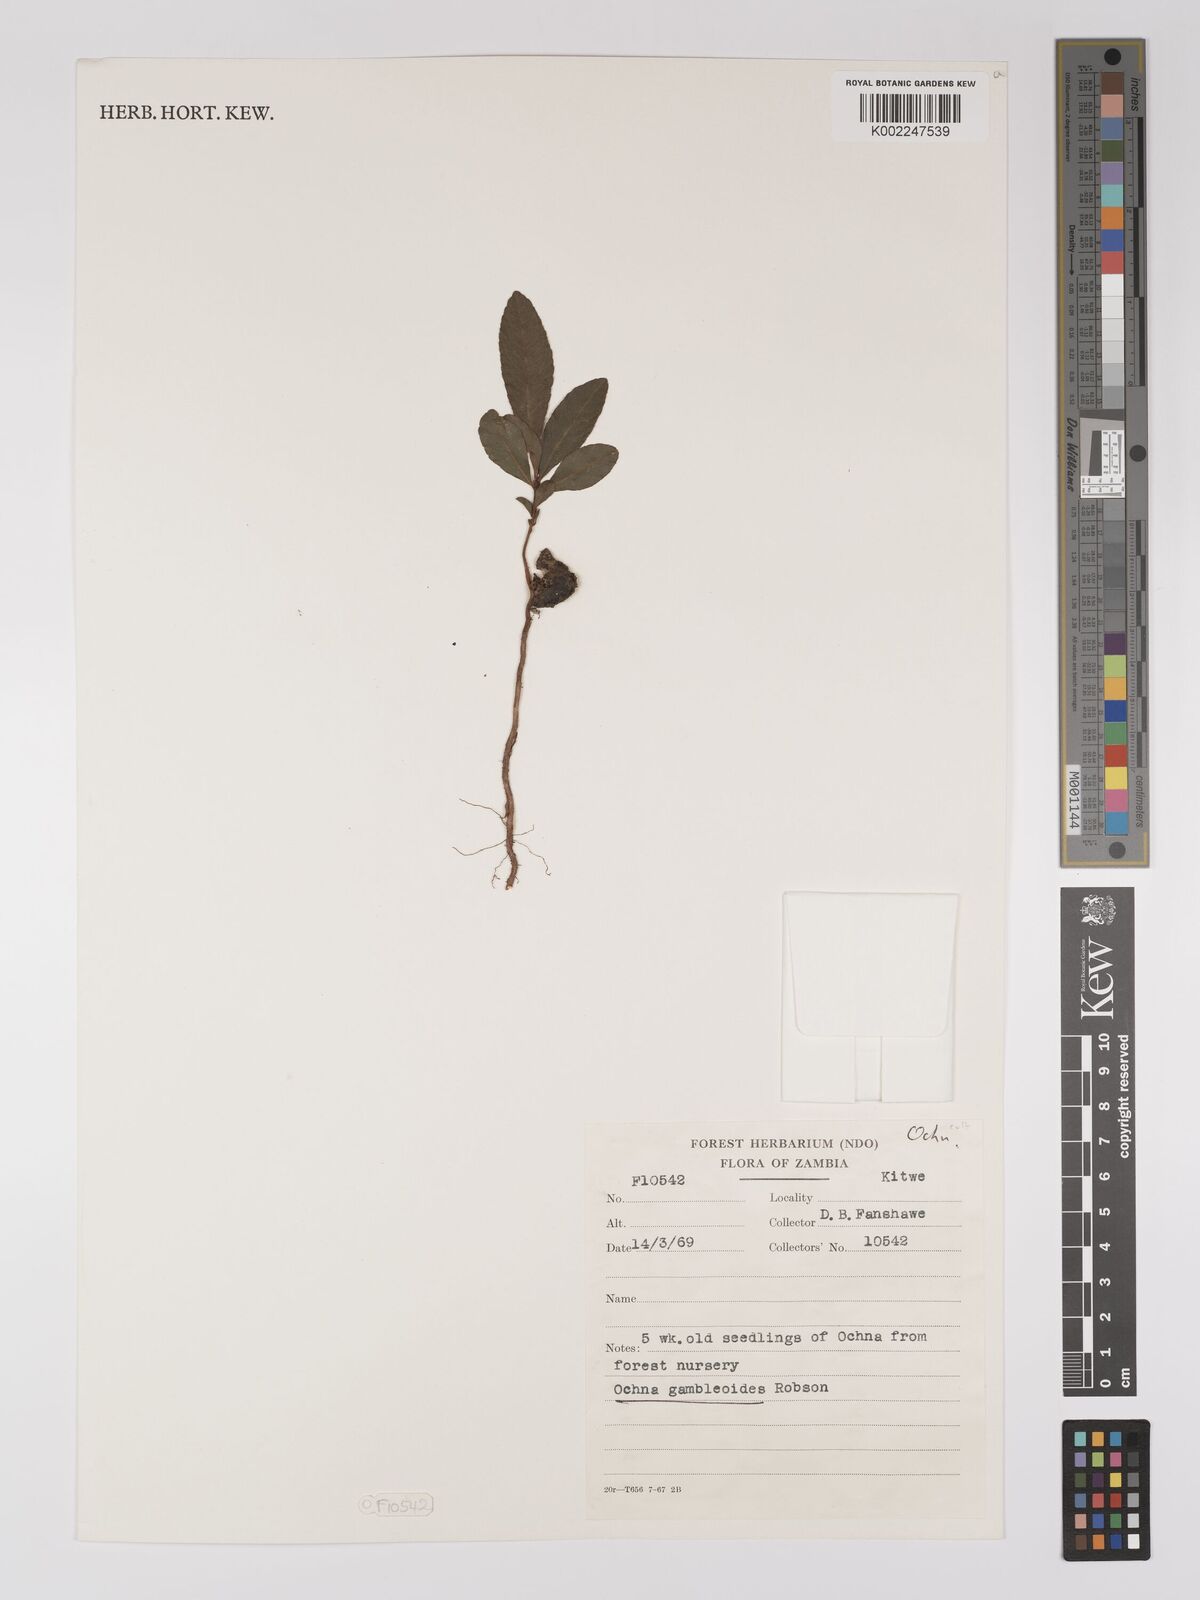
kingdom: Plantae
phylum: Tracheophyta
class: Magnoliopsida
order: Malpighiales
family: Ochnaceae
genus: Ochna
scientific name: Ochna gambleoides
